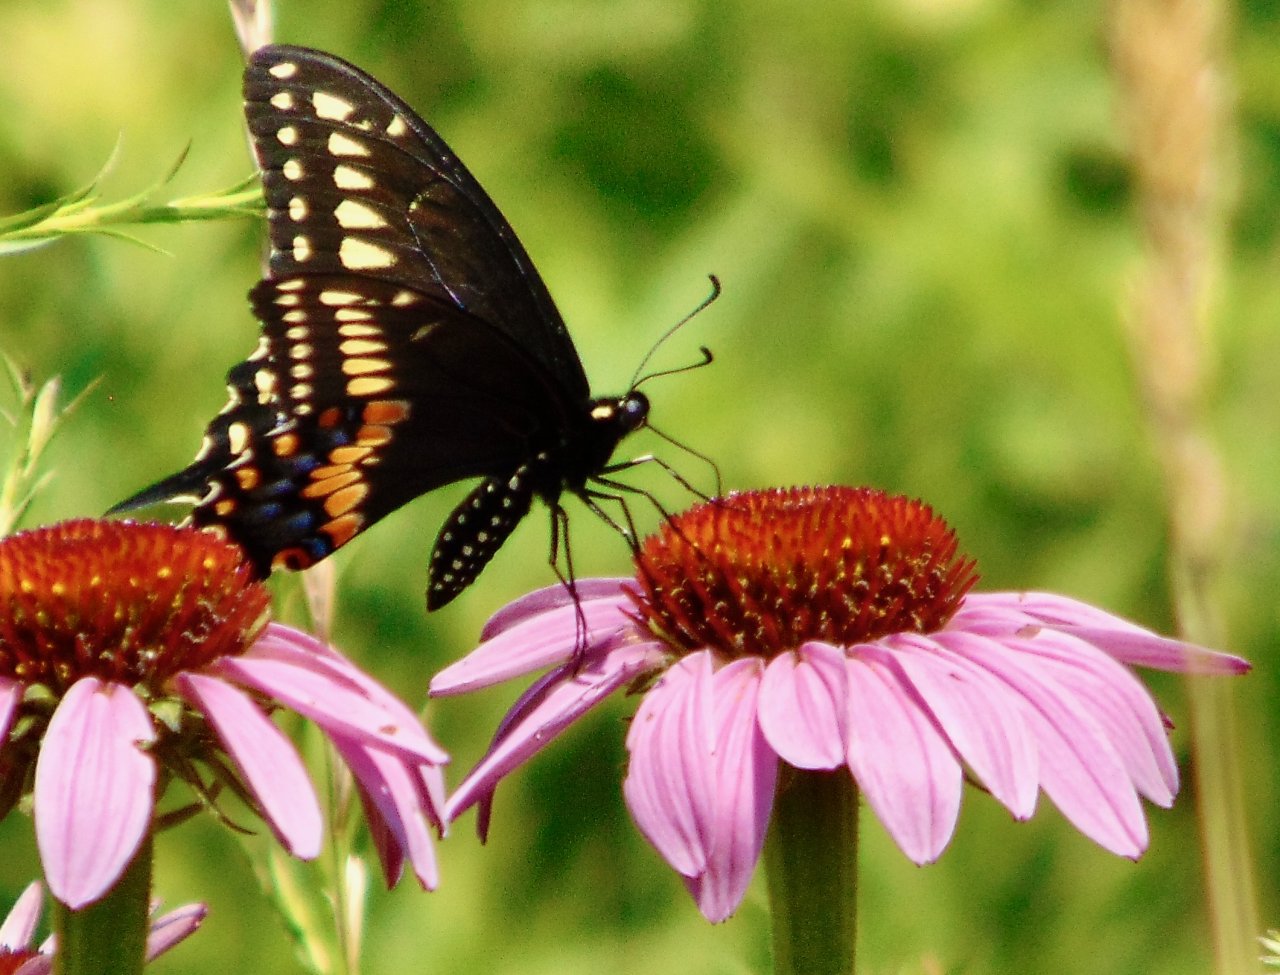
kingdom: Animalia
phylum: Arthropoda
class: Insecta
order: Lepidoptera
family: Papilionidae
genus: Papilio
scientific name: Papilio polyxenes
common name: Black Swallowtail
